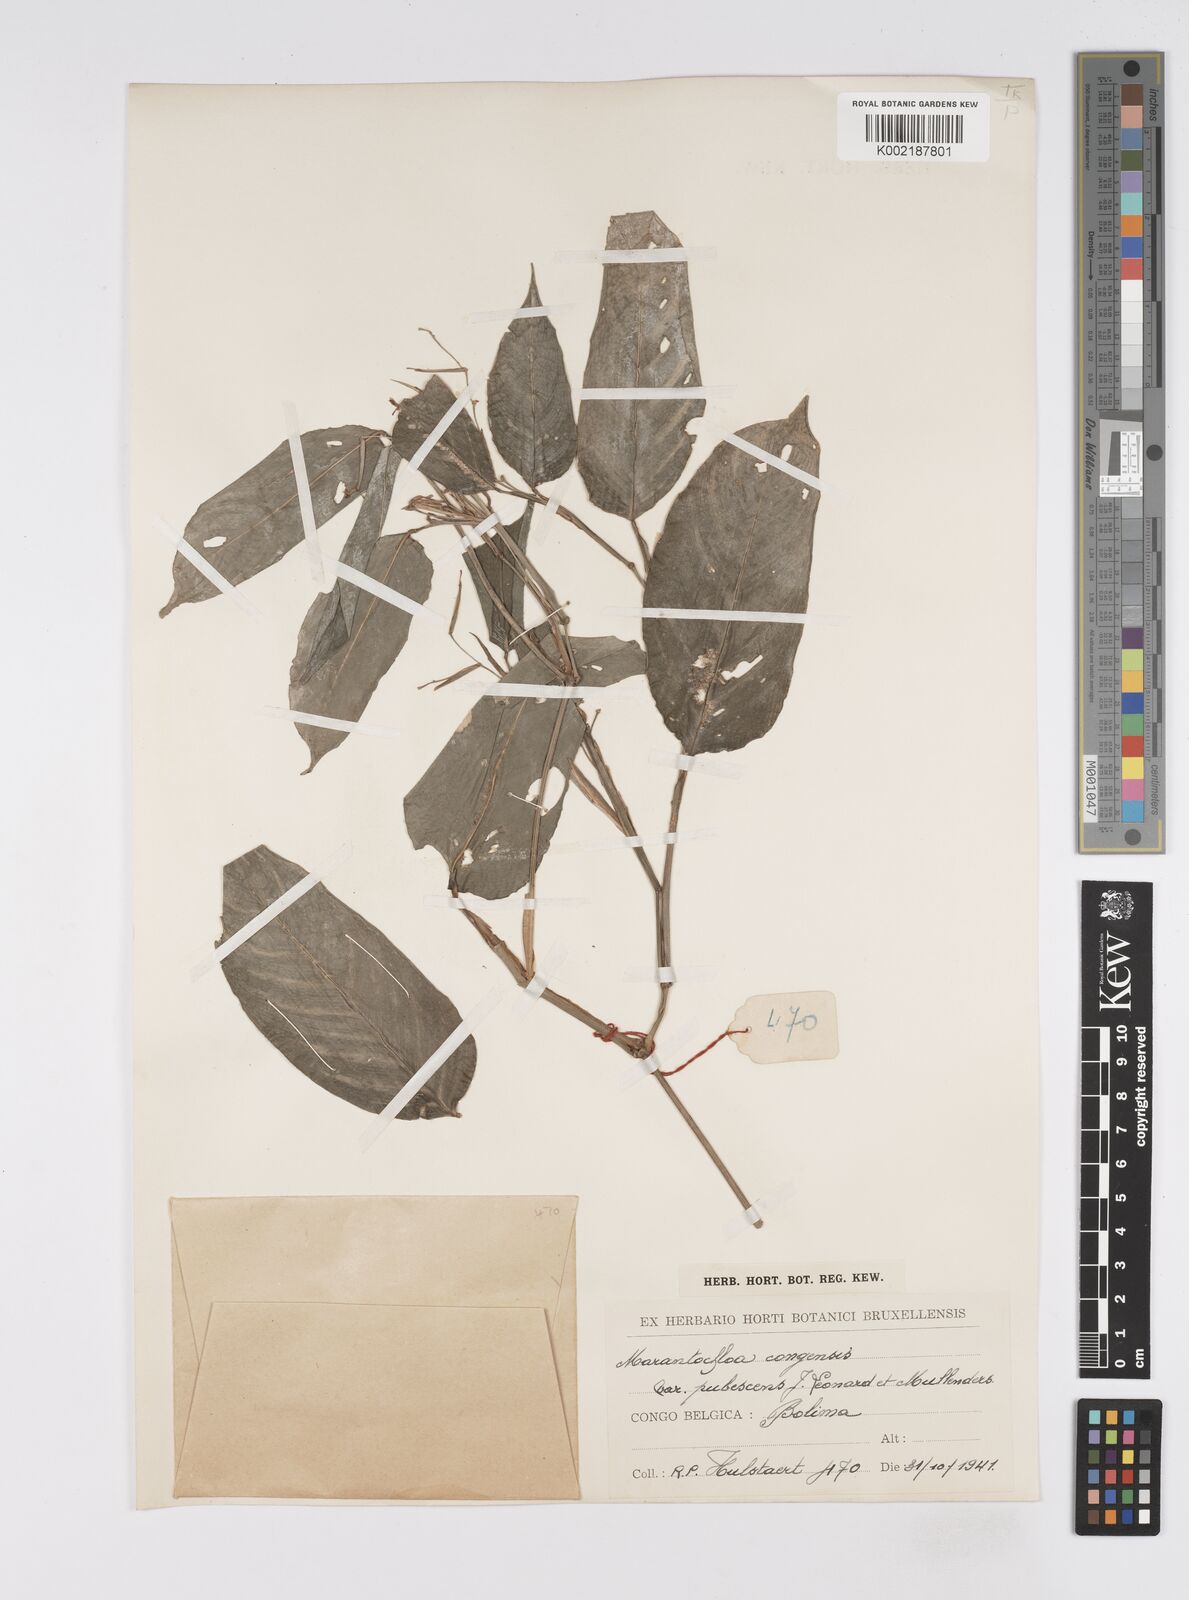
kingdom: Plantae
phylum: Tracheophyta
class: Liliopsida
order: Zingiberales
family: Marantaceae
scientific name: Marantaceae
